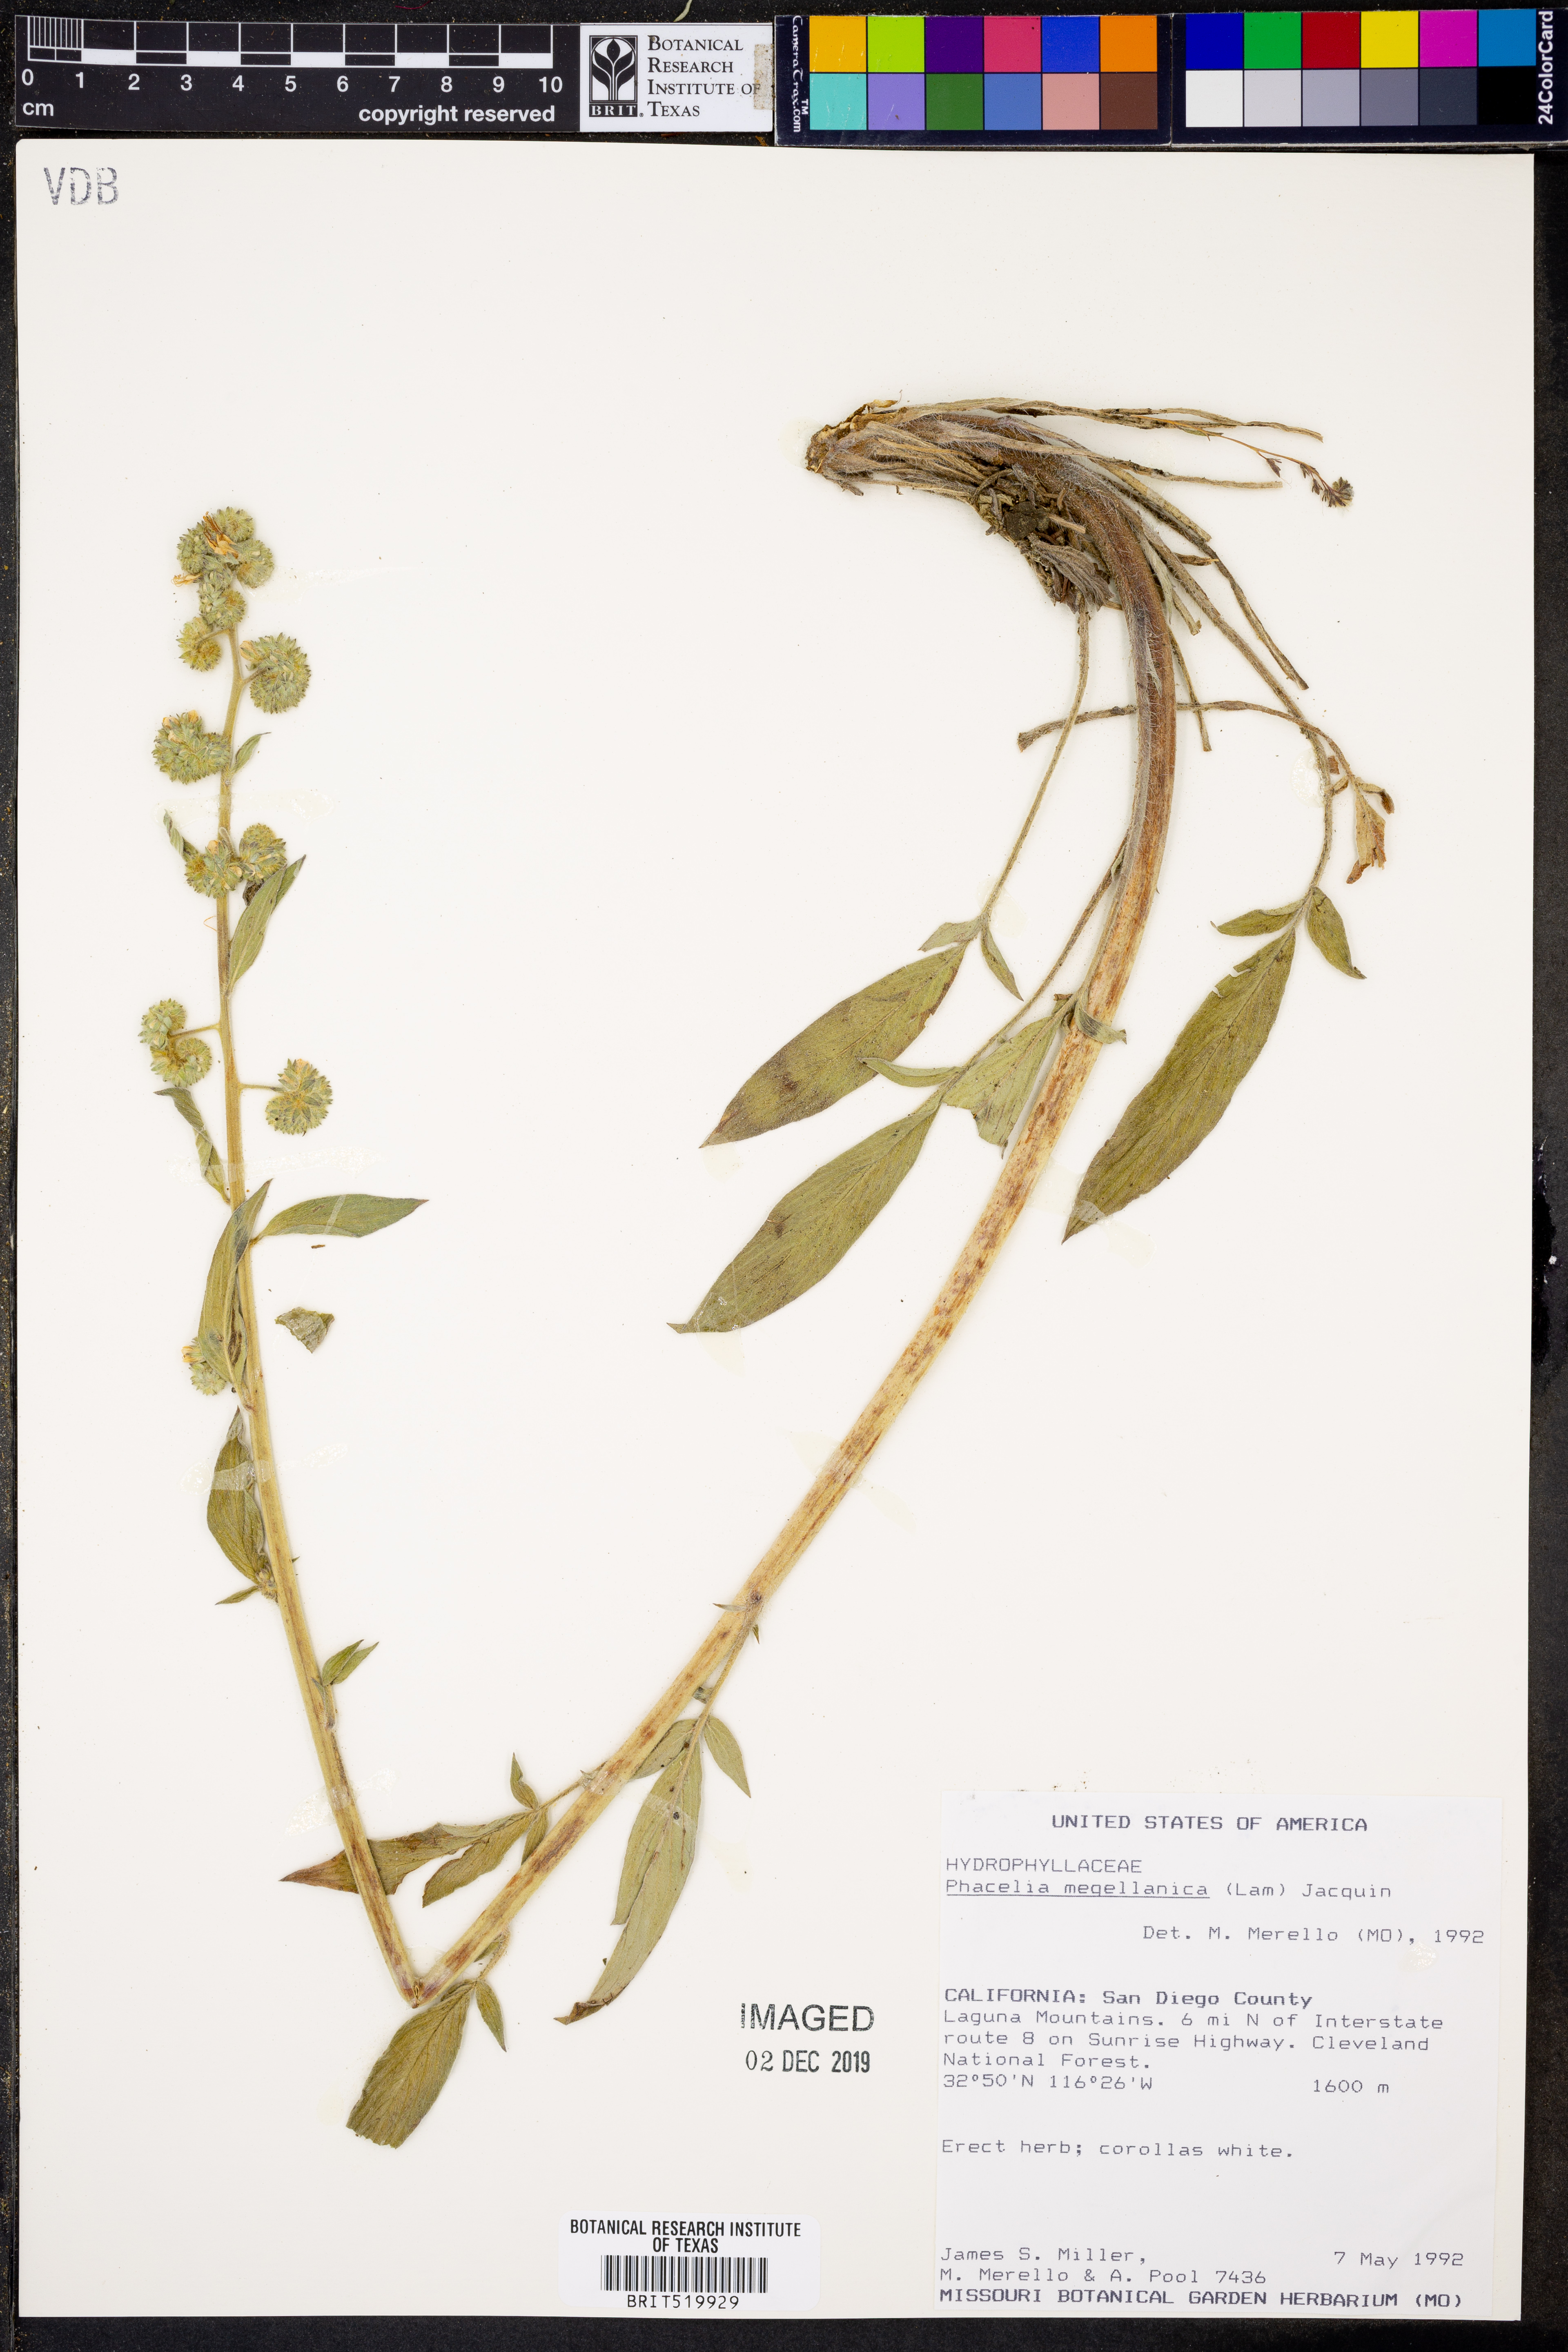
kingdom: Plantae
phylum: Tracheophyta
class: Magnoliopsida
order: Boraginales
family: Hydrophyllaceae
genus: Phacelia
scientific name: Phacelia secunda
